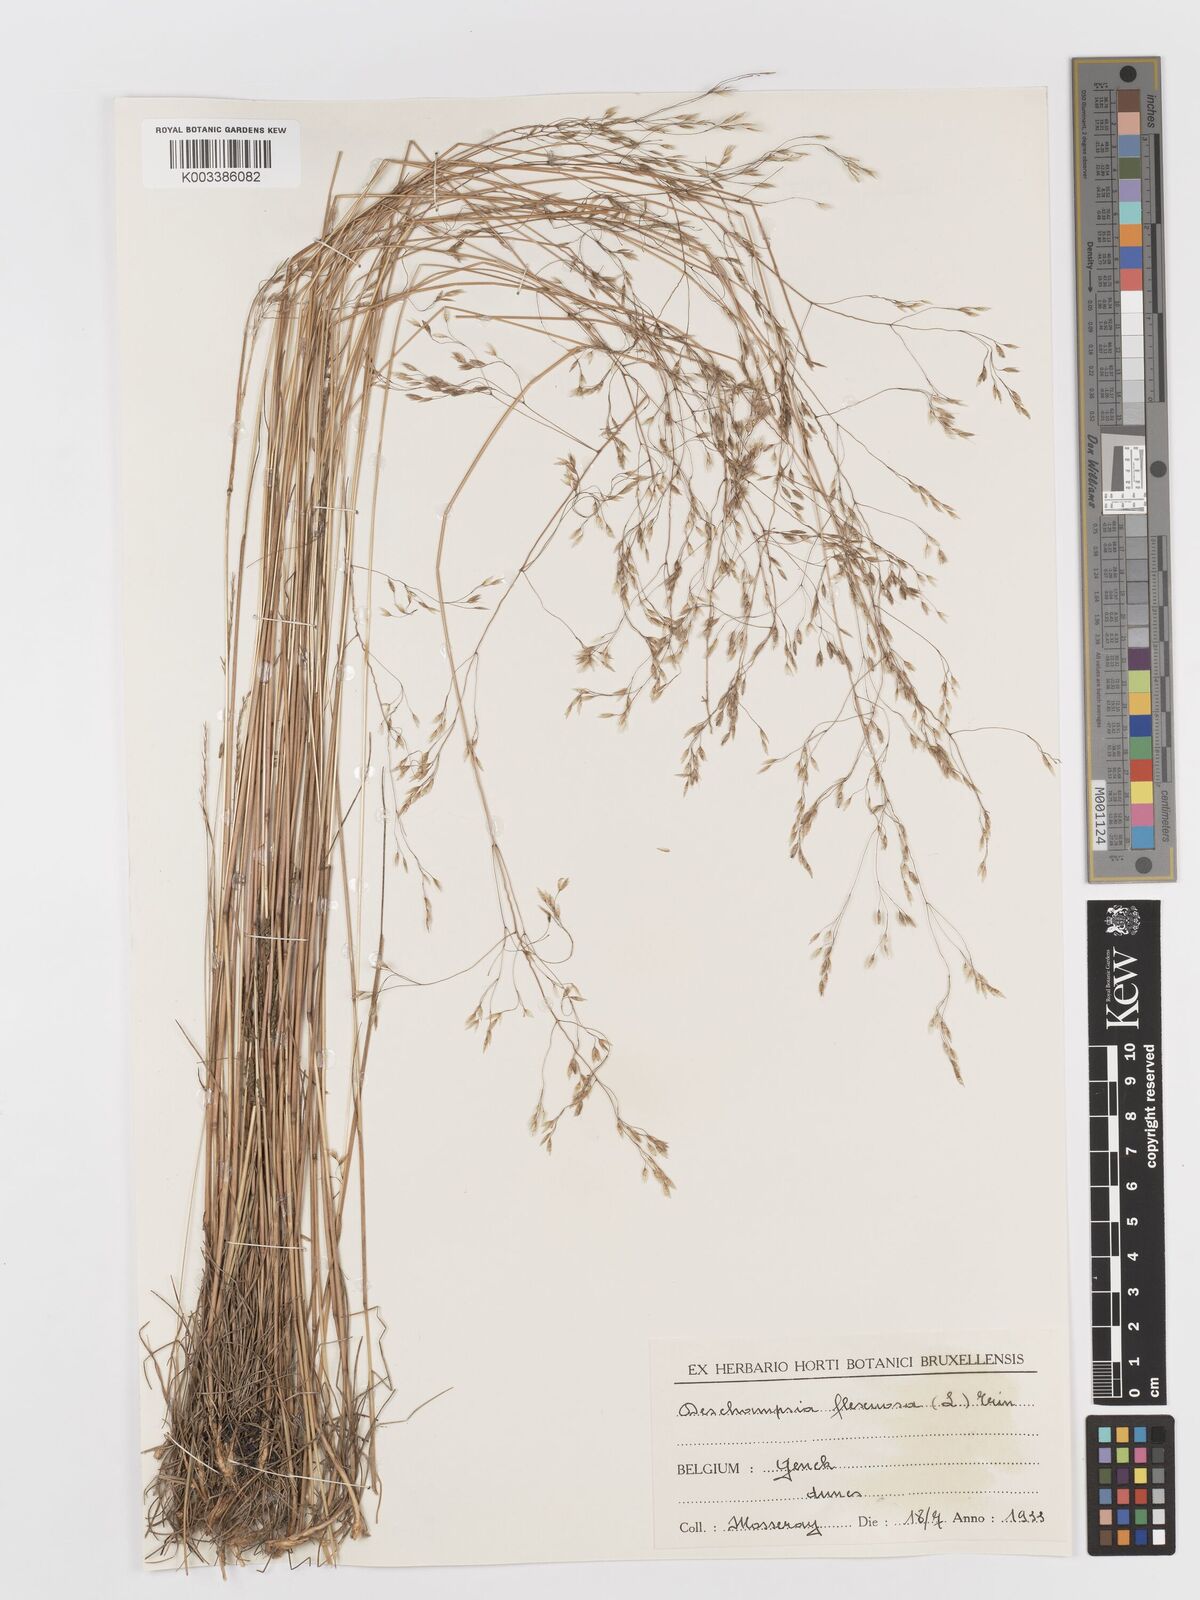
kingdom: Plantae
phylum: Tracheophyta
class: Liliopsida
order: Poales
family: Poaceae
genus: Avenella
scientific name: Avenella flexuosa
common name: Wavy hairgrass
